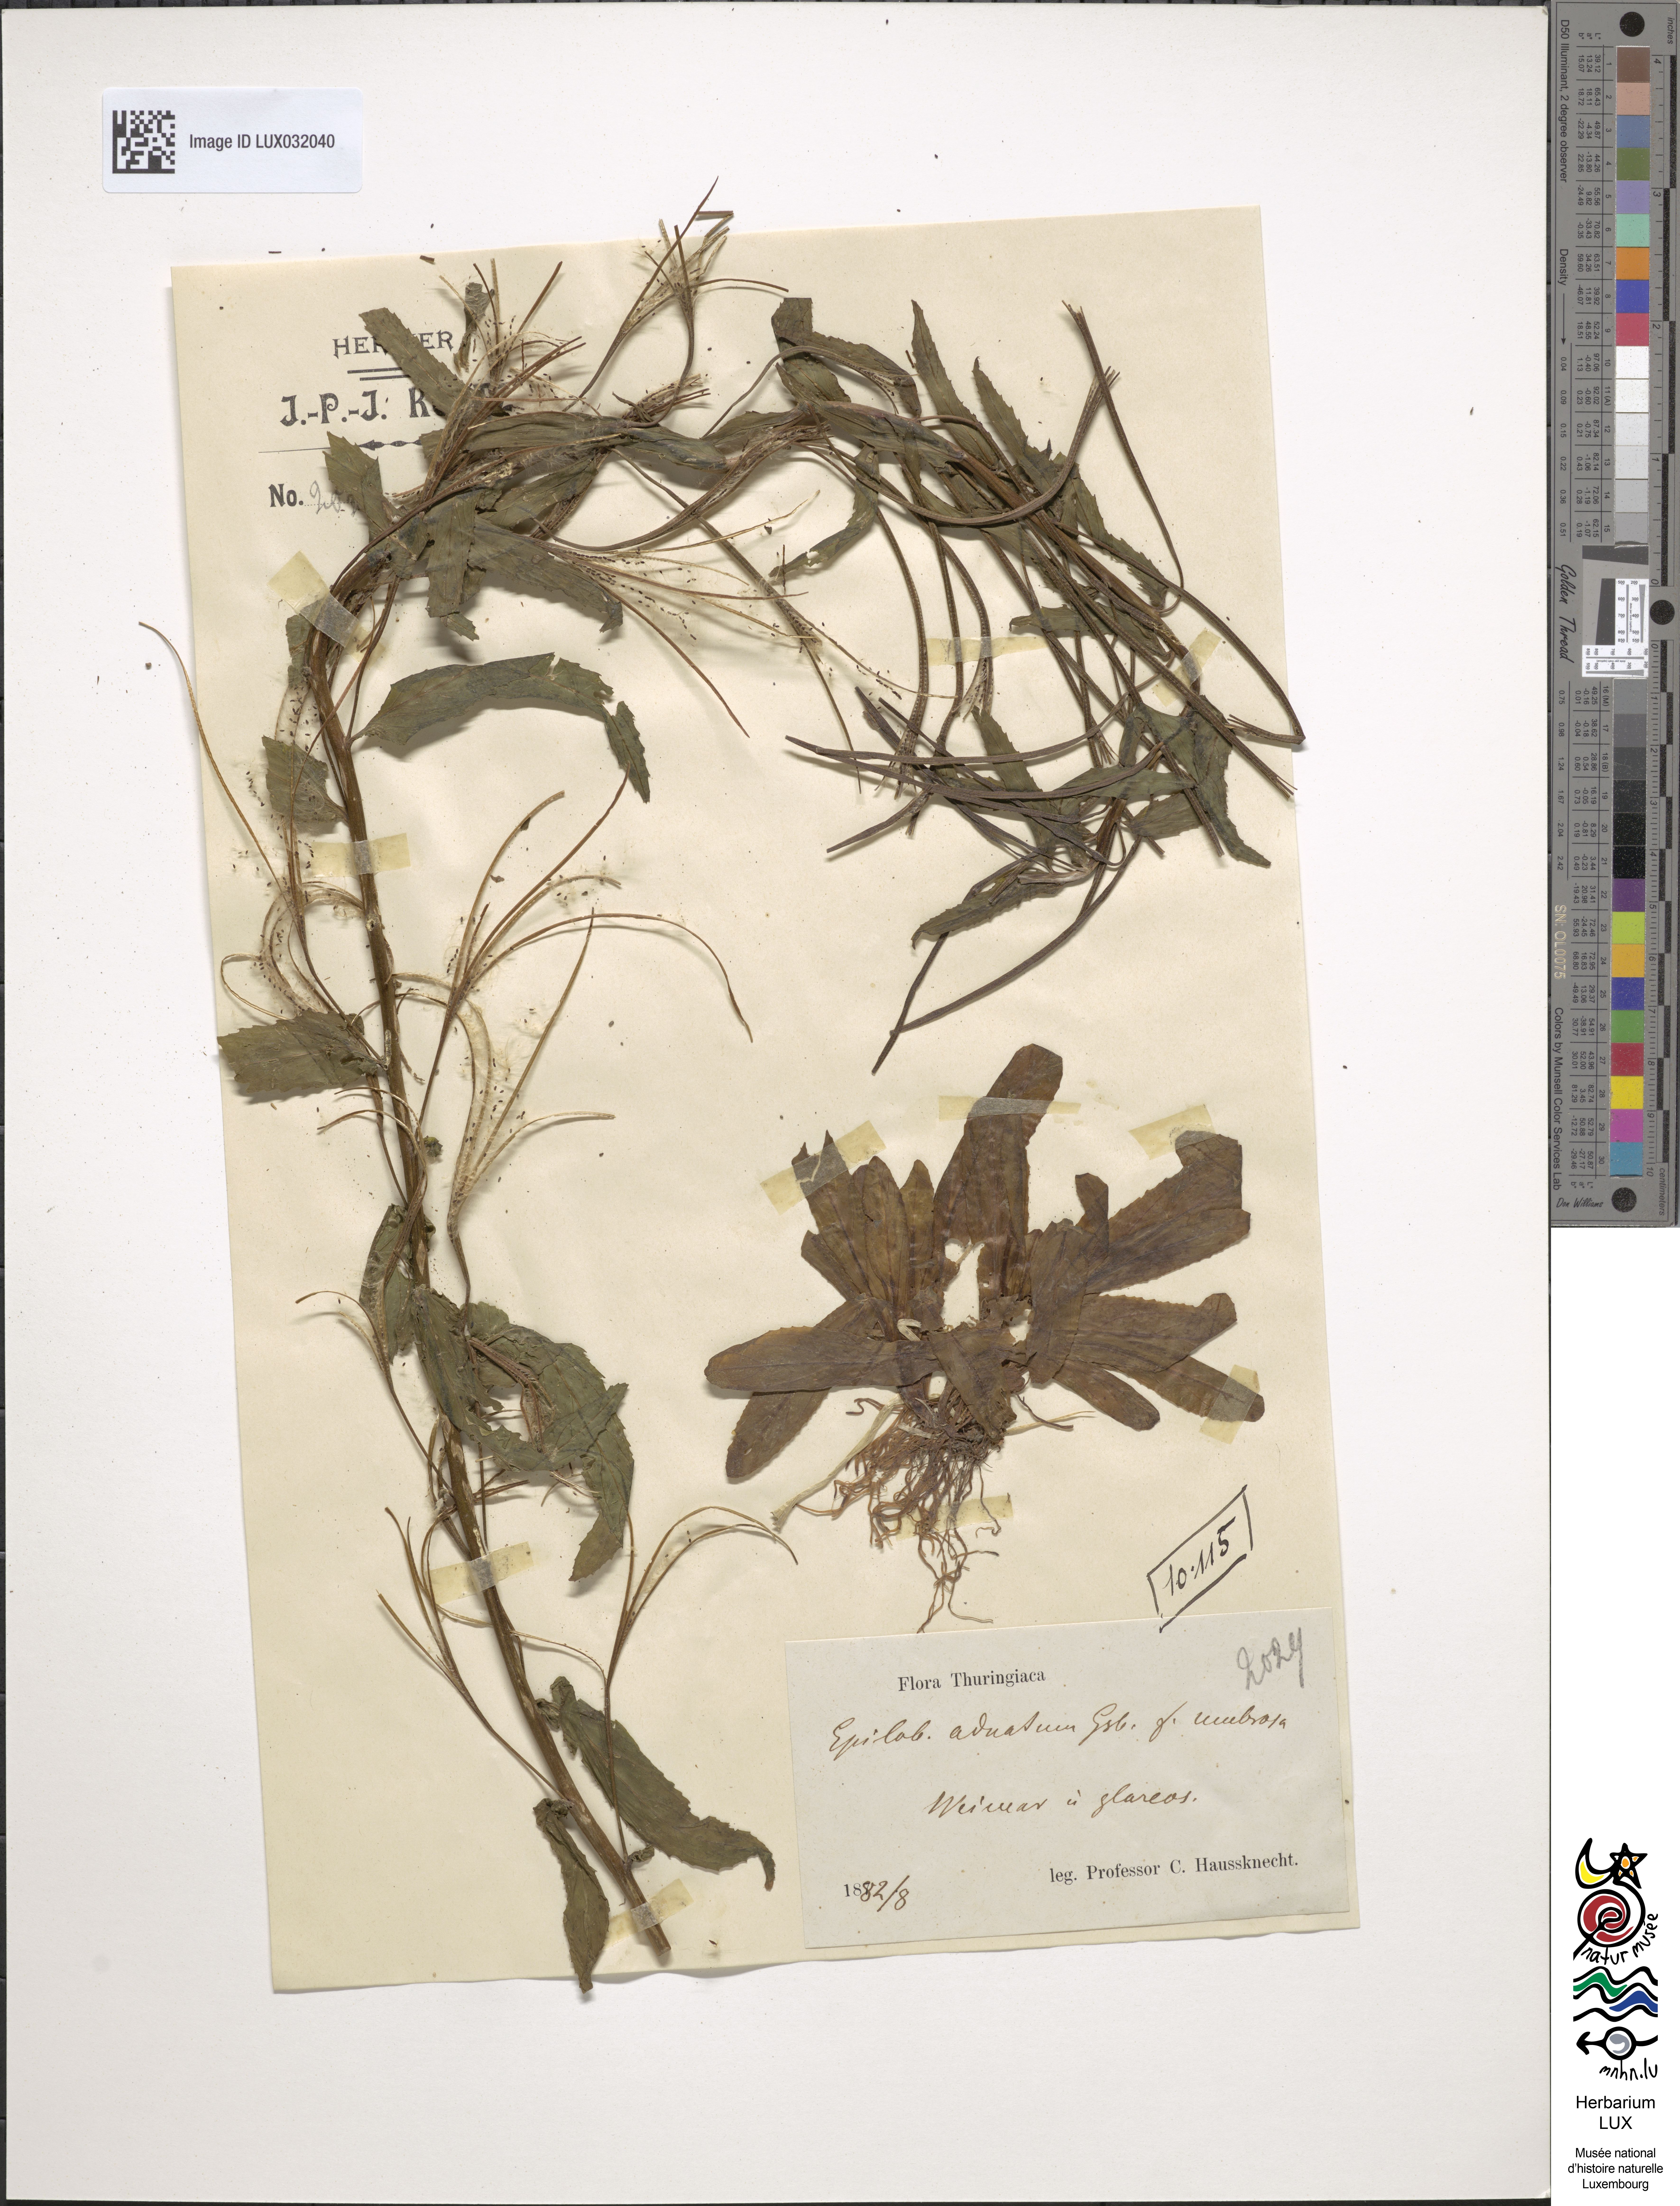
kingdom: Plantae
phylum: Tracheophyta
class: Magnoliopsida
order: Myrtales
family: Onagraceae
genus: Epilobium
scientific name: Epilobium tetragonum
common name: Square-stemmed willowherb
